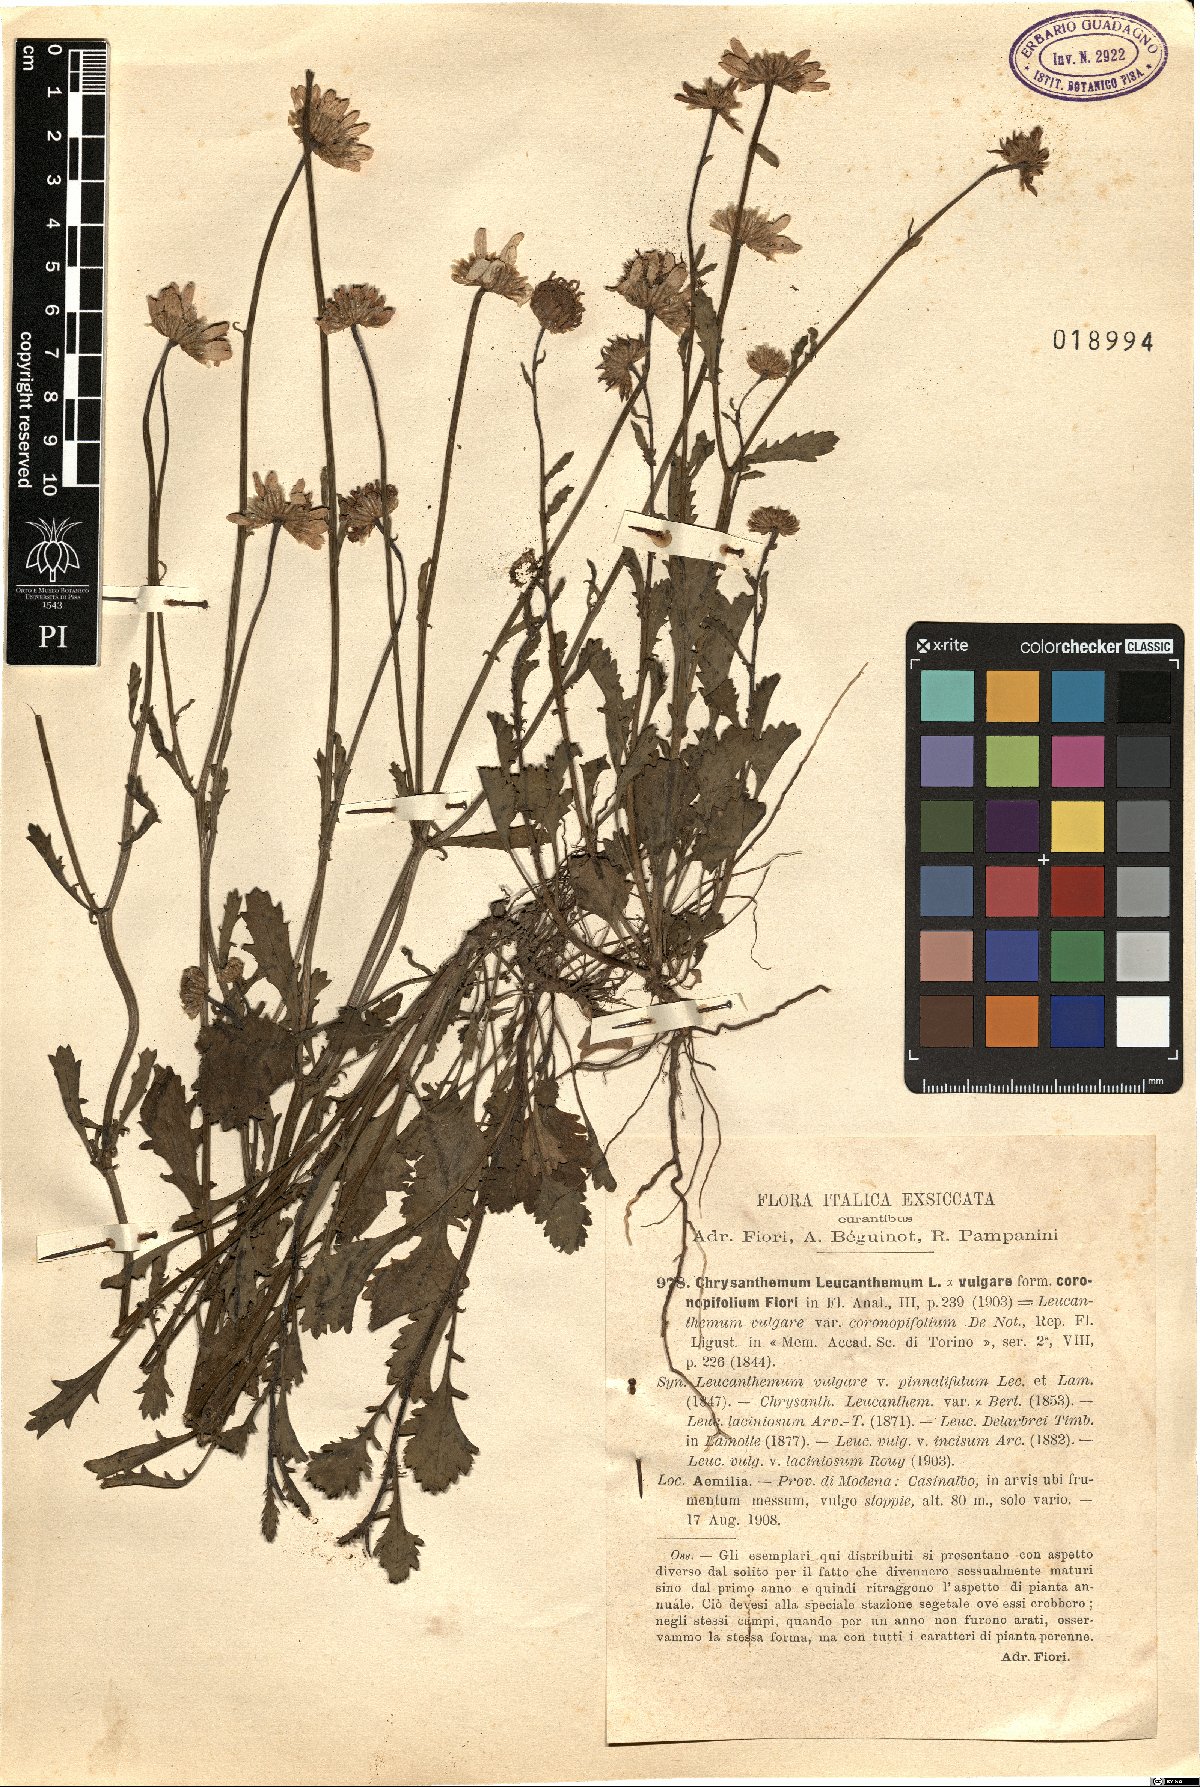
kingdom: Plantae
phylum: Tracheophyta
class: Magnoliopsida
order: Asterales
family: Asteraceae
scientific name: Asteraceae
